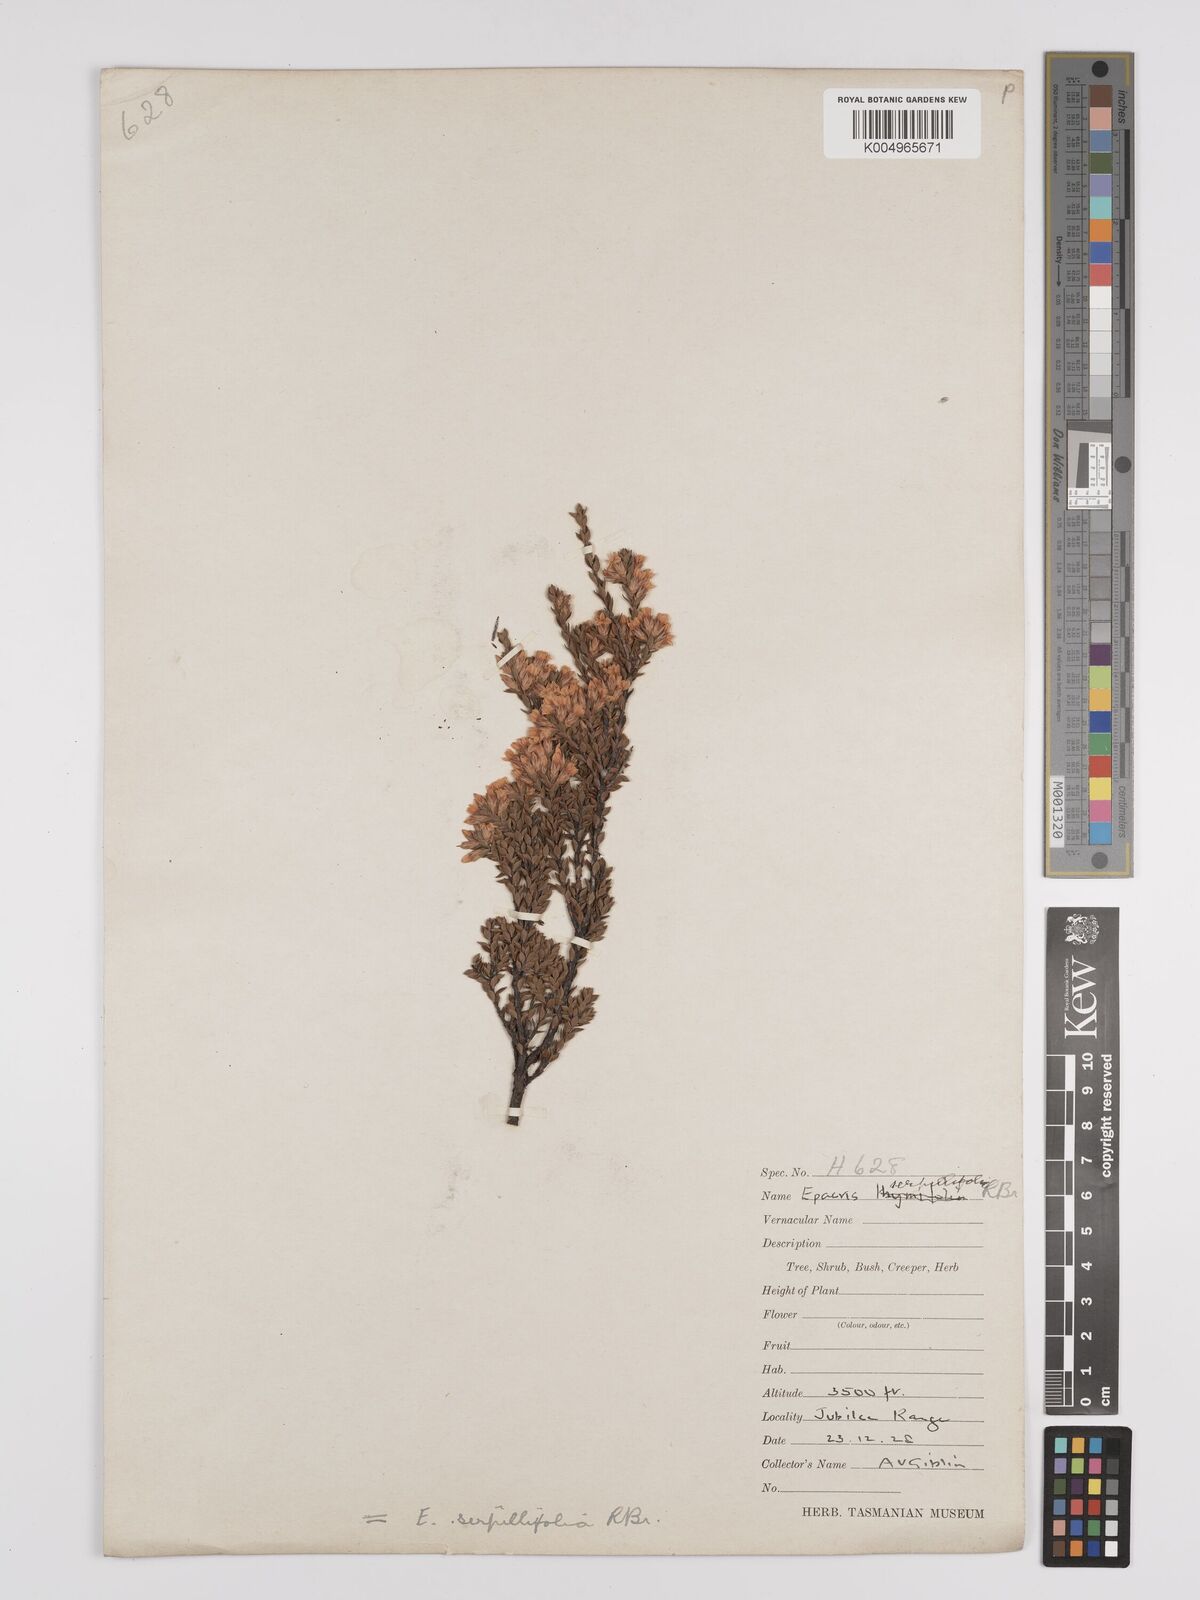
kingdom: Plantae
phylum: Tracheophyta
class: Magnoliopsida
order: Ericales
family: Ericaceae
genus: Epacris
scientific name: Epacris serpyllifolia
